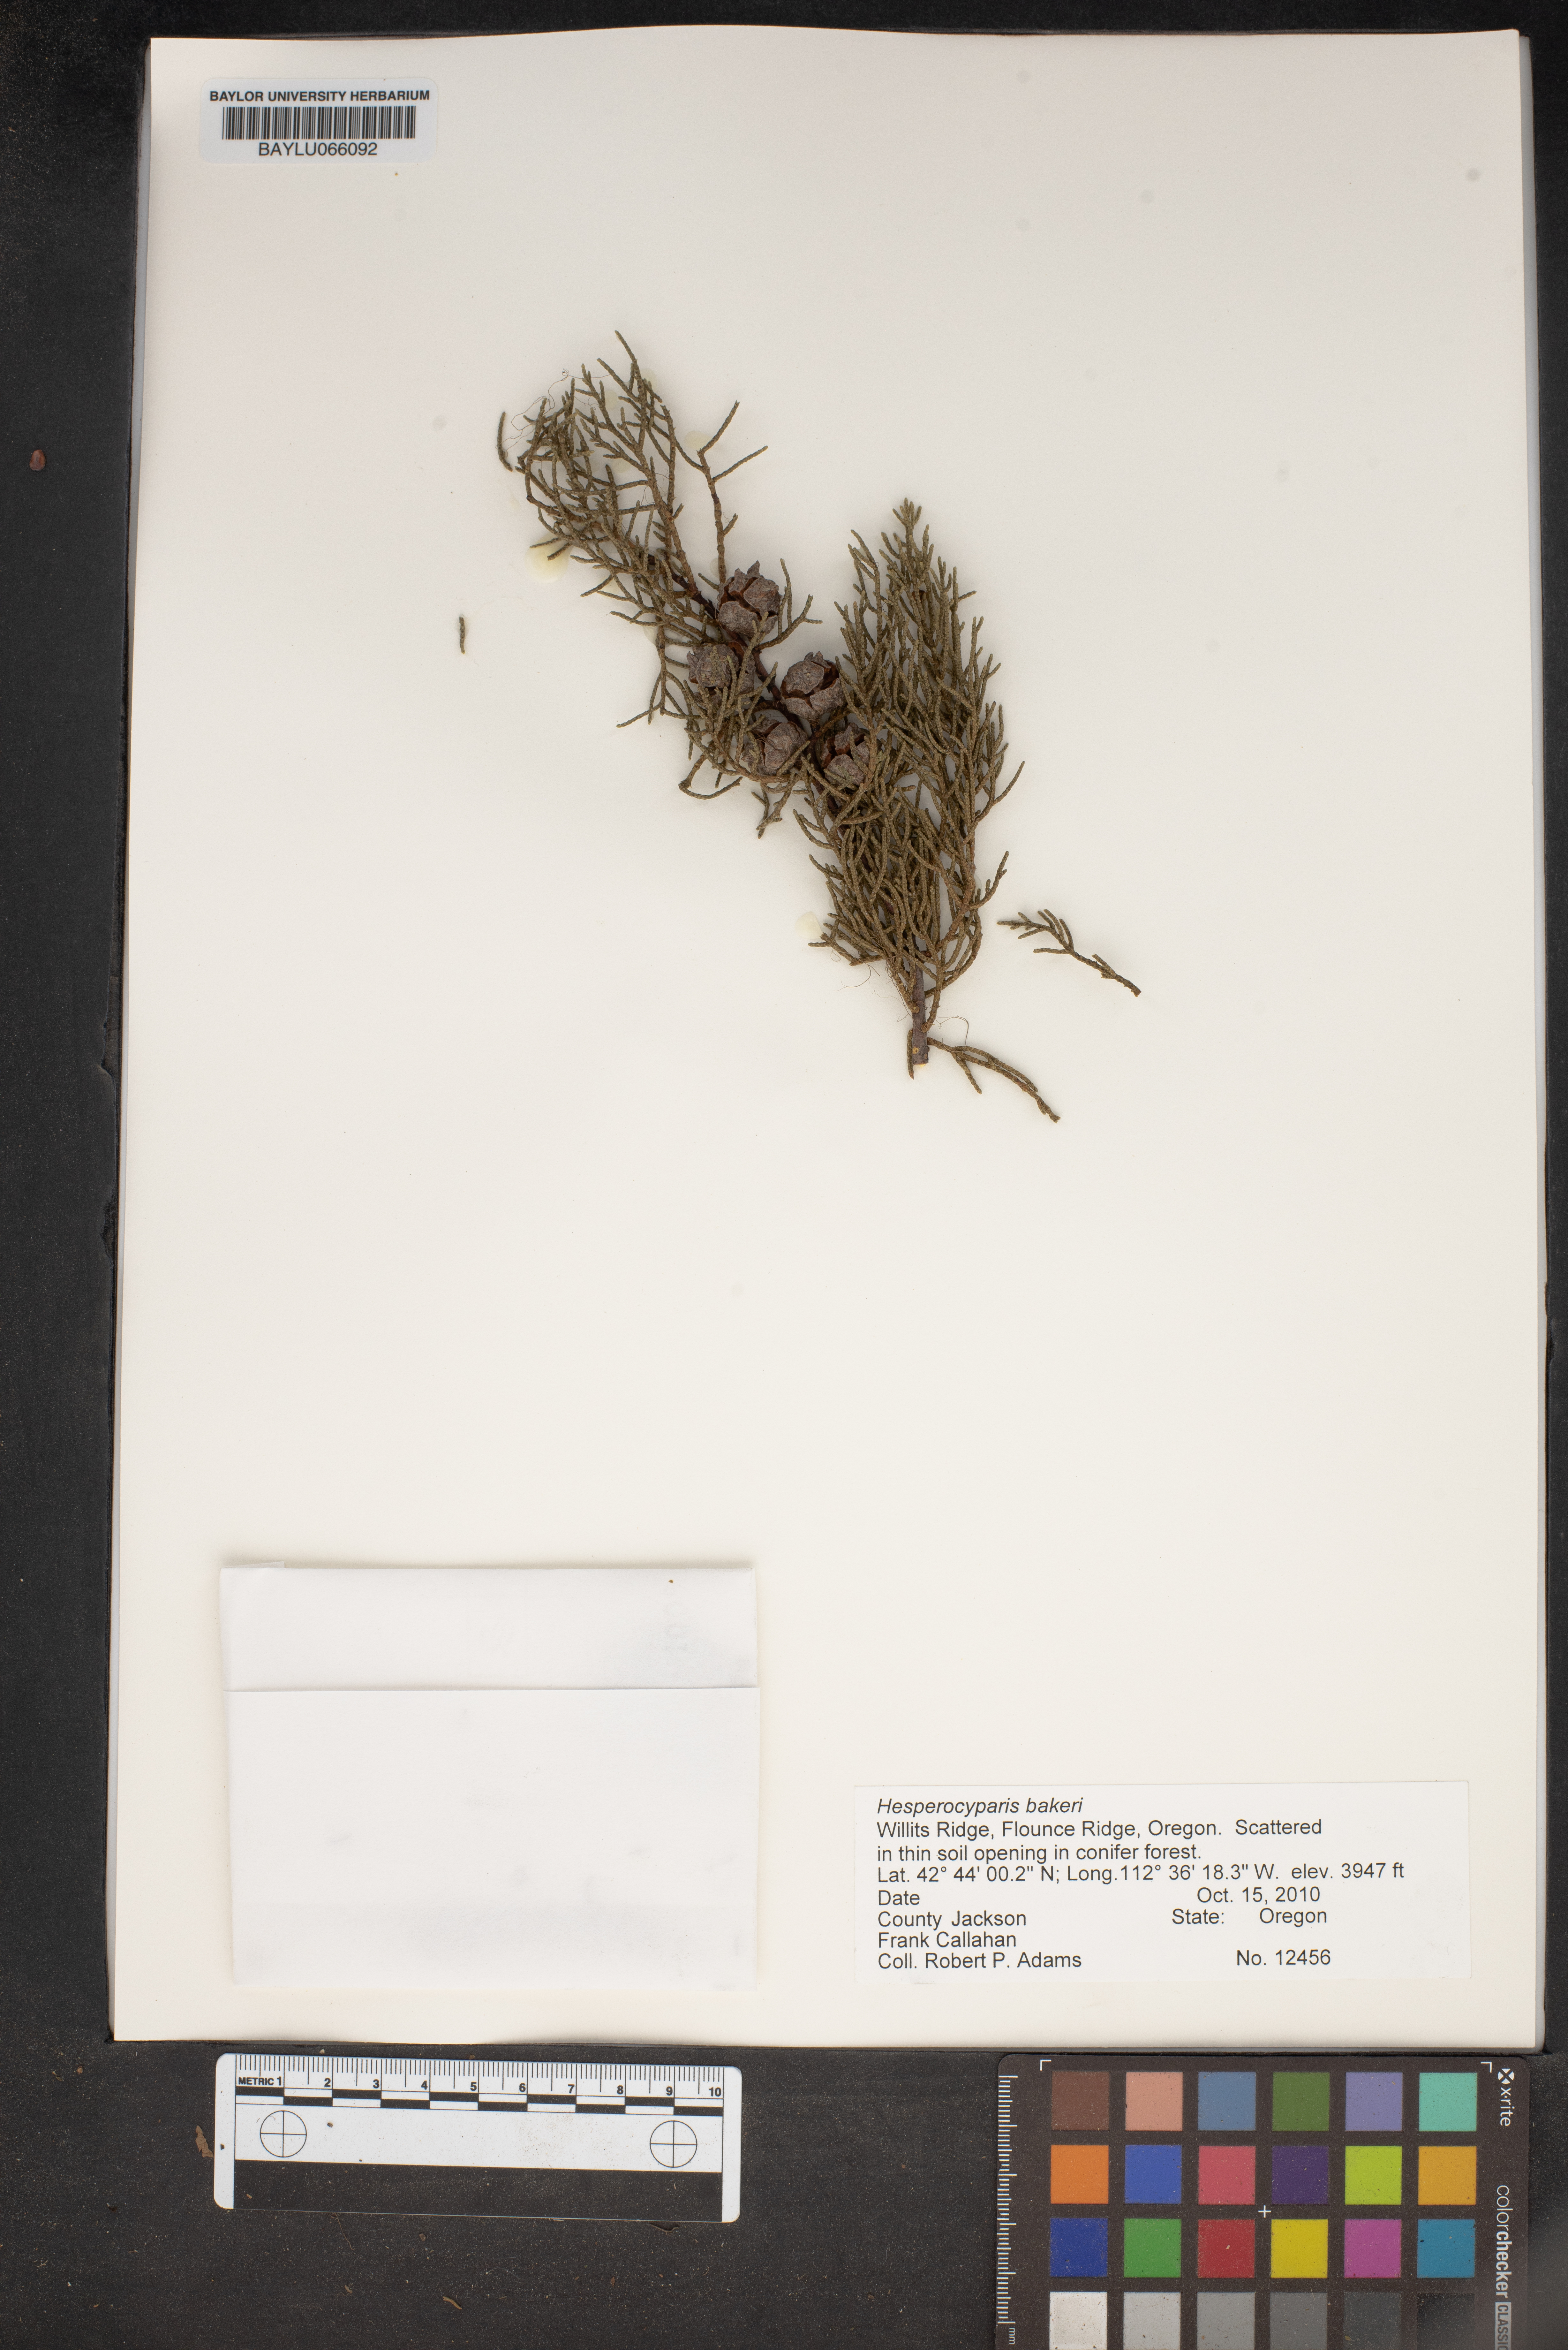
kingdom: Plantae
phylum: Tracheophyta
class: Pinopsida
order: Pinales
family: Cupressaceae
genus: Cupressus
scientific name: Cupressus bakeri
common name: Baker cypress
